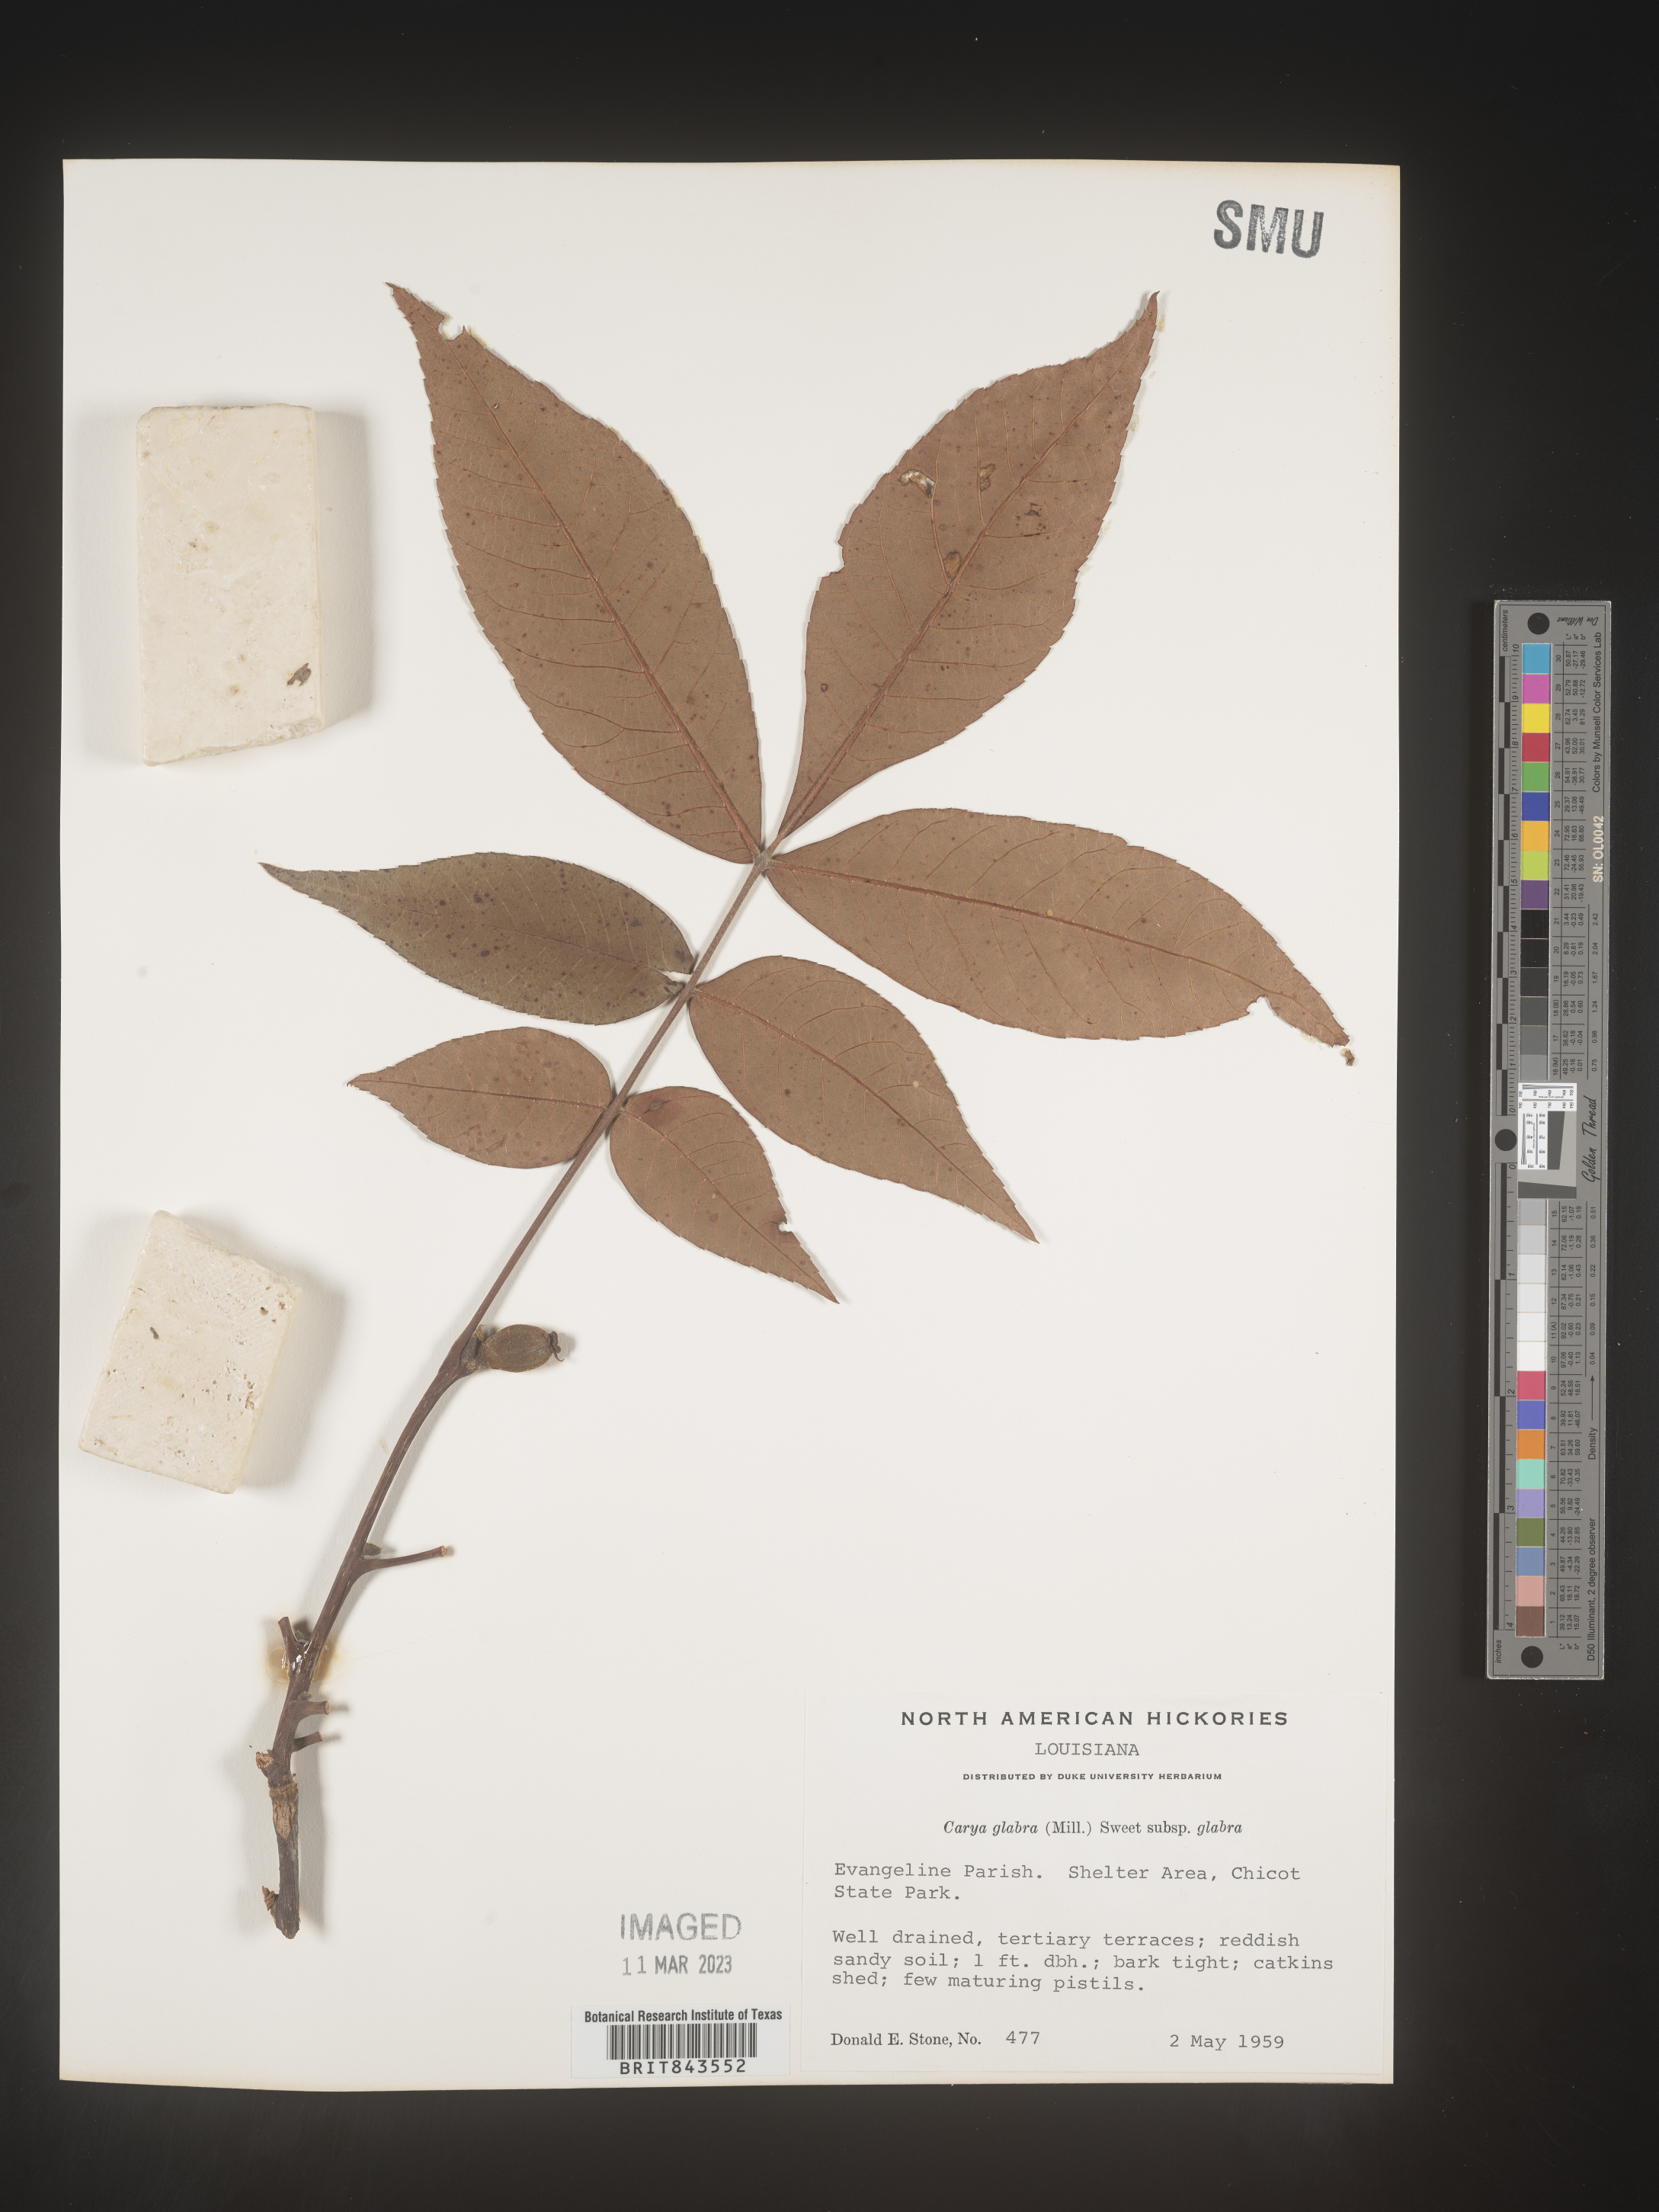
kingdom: Plantae
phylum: Tracheophyta
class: Magnoliopsida
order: Fagales
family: Juglandaceae
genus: Carya
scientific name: Carya glabra
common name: Pignut hickory
